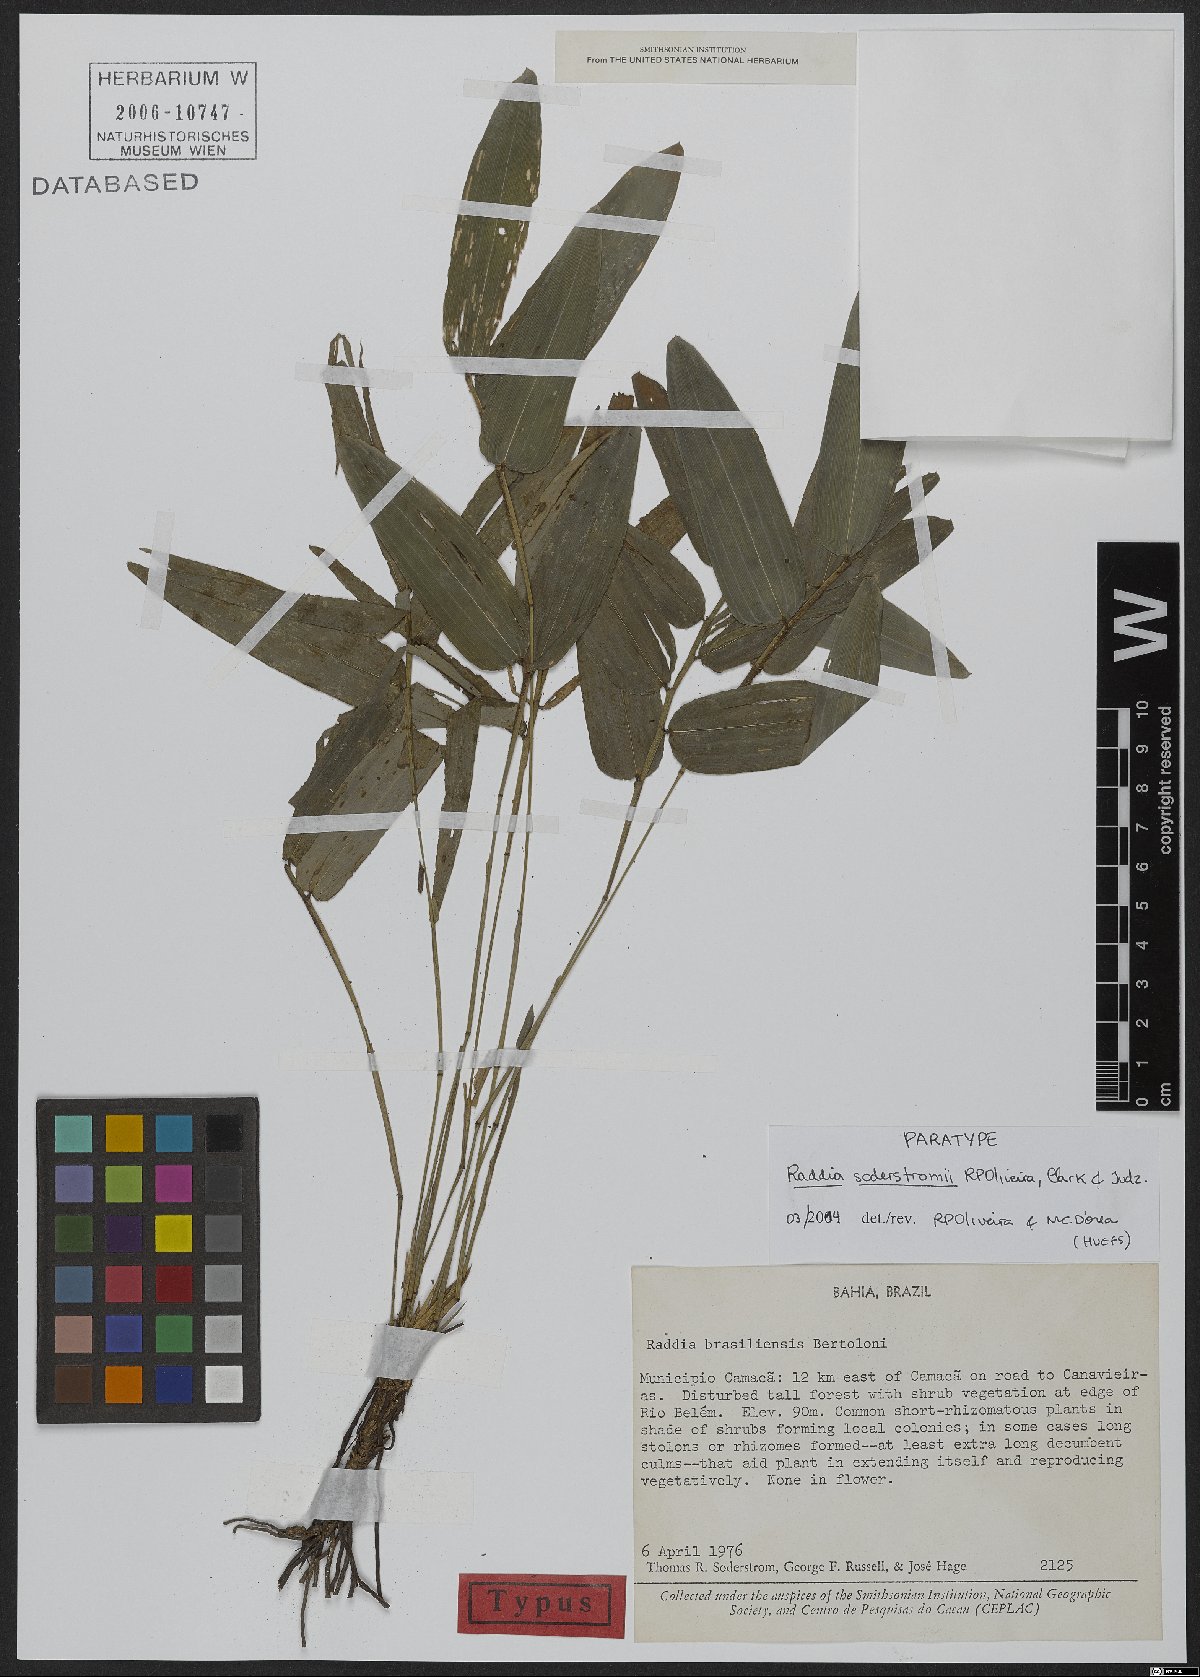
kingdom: Plantae
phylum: Tracheophyta
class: Liliopsida
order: Poales
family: Poaceae
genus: Raddia
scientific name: Raddia soderstromii
